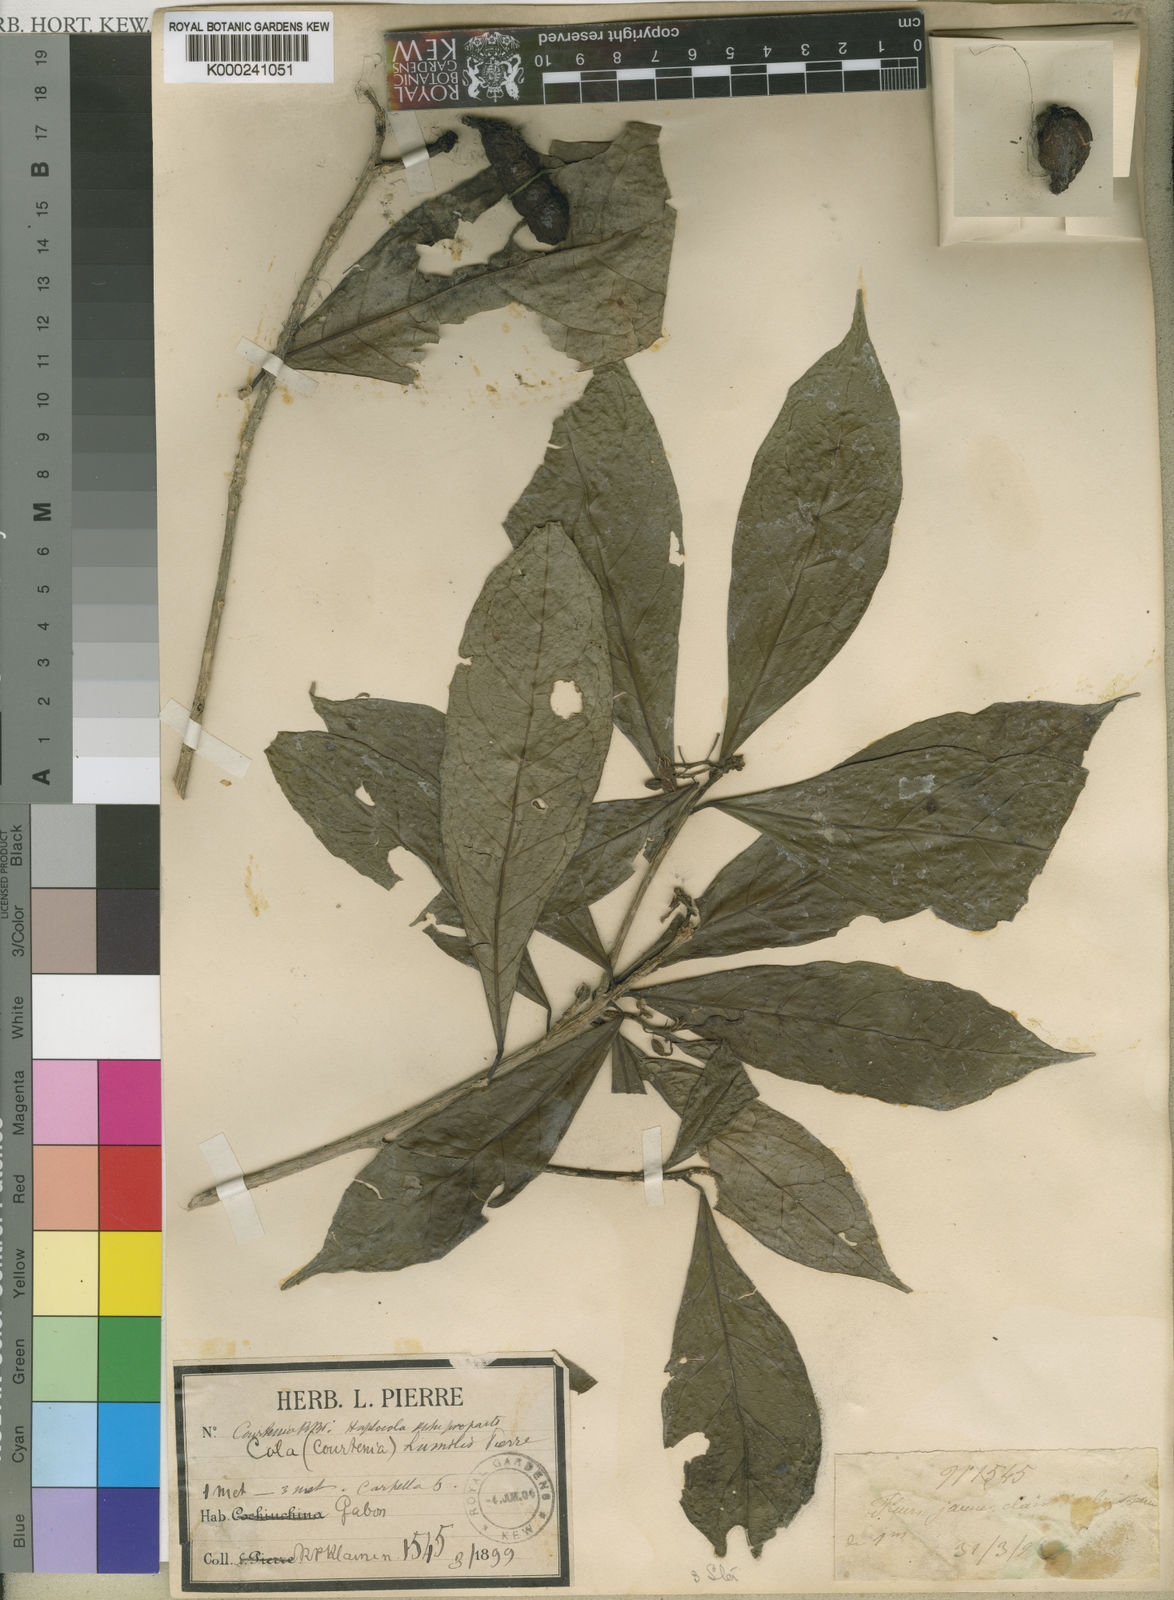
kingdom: Plantae
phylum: Tracheophyta
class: Magnoliopsida
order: Malvales
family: Malvaceae
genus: Cola
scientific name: Cola heterophylla
